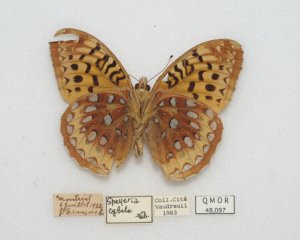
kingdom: Animalia
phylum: Arthropoda
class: Insecta
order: Lepidoptera
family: Nymphalidae
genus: Speyeria
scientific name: Speyeria cybele
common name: Great Spangled Fritillary
